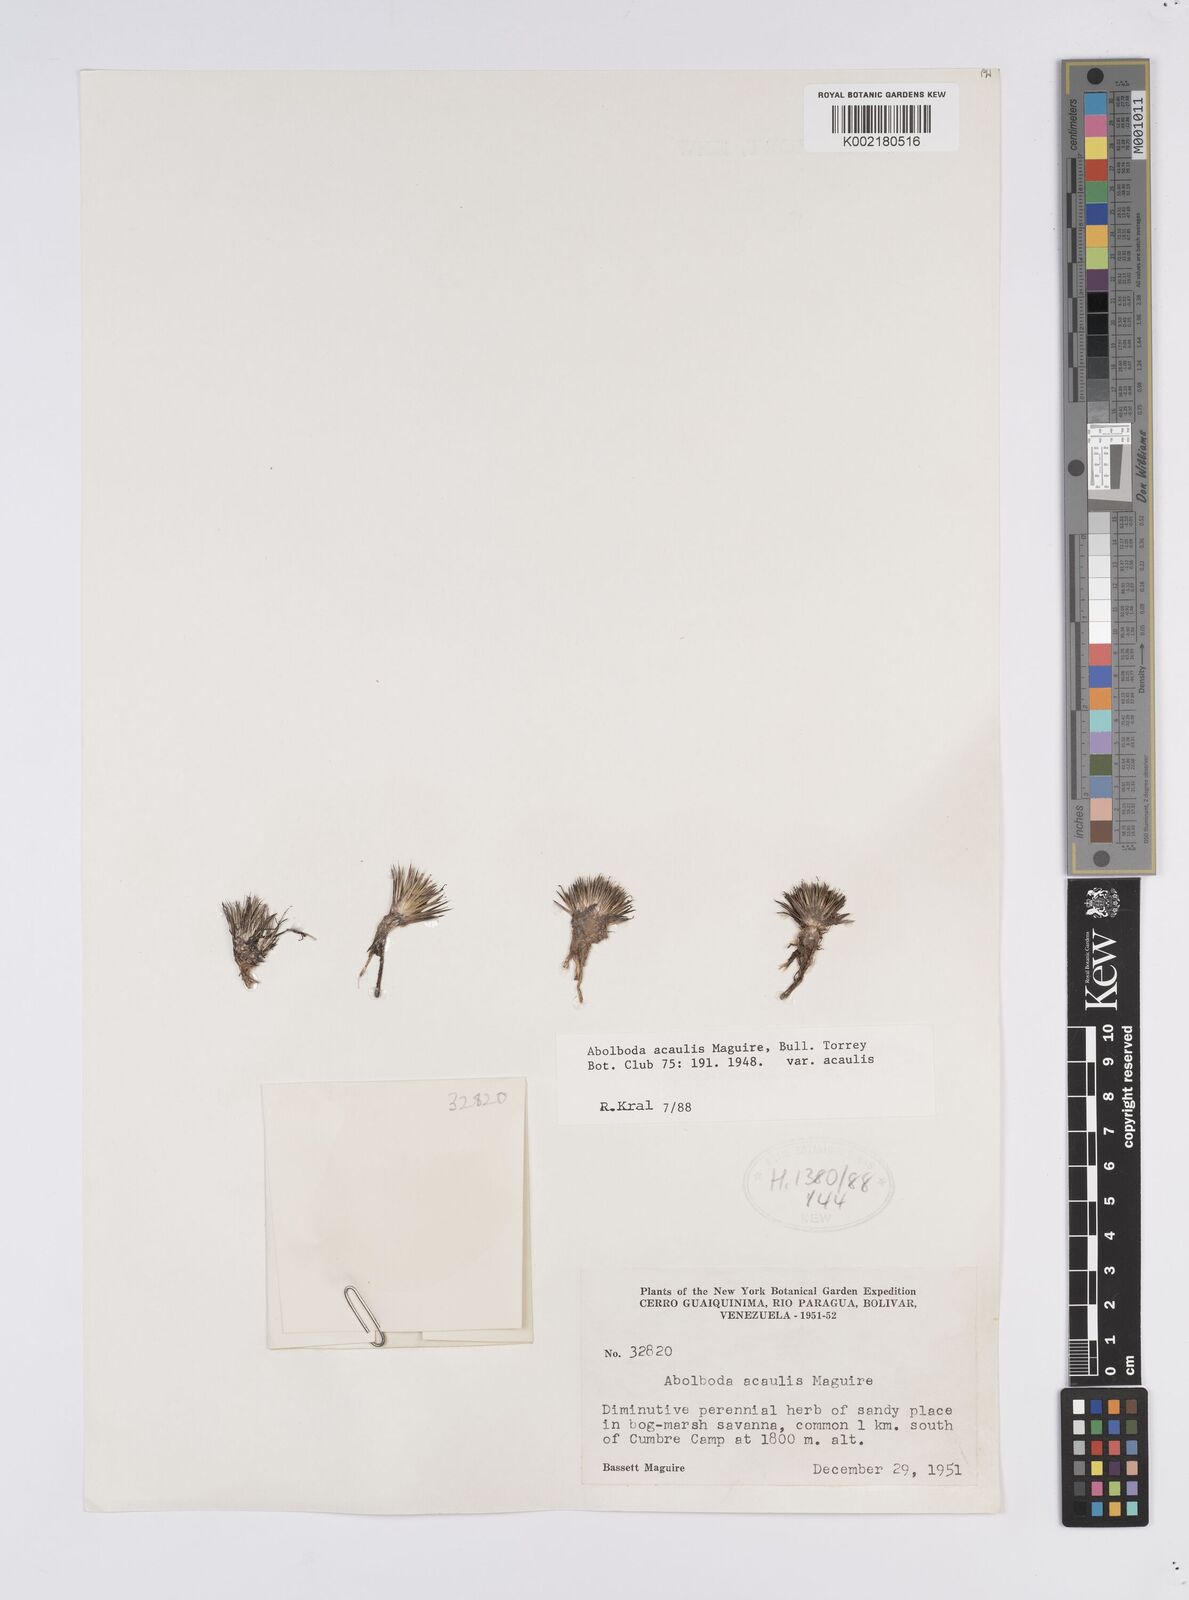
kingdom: Plantae
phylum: Tracheophyta
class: Liliopsida
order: Poales
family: Xyridaceae
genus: Abolboda
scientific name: Abolboda acaulis
